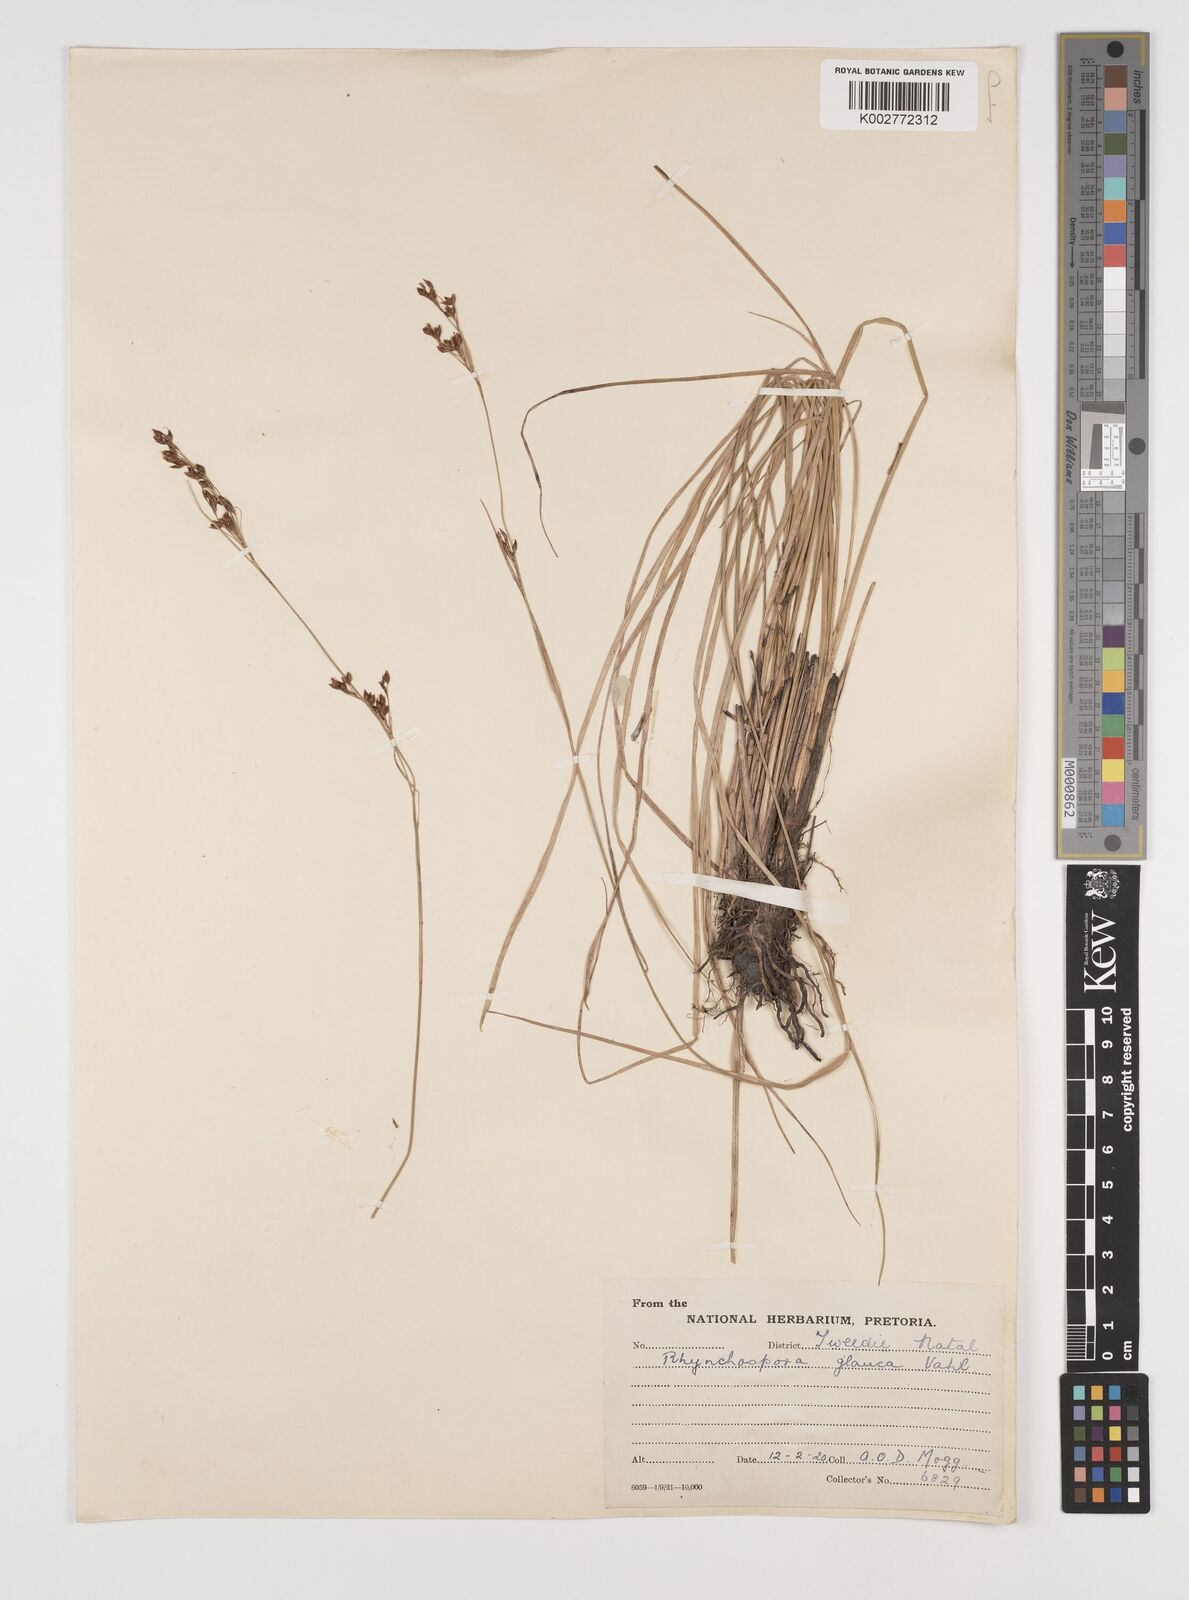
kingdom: Plantae
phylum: Tracheophyta
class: Liliopsida
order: Poales
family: Cyperaceae
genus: Rhynchospora
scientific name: Rhynchospora rugosa
